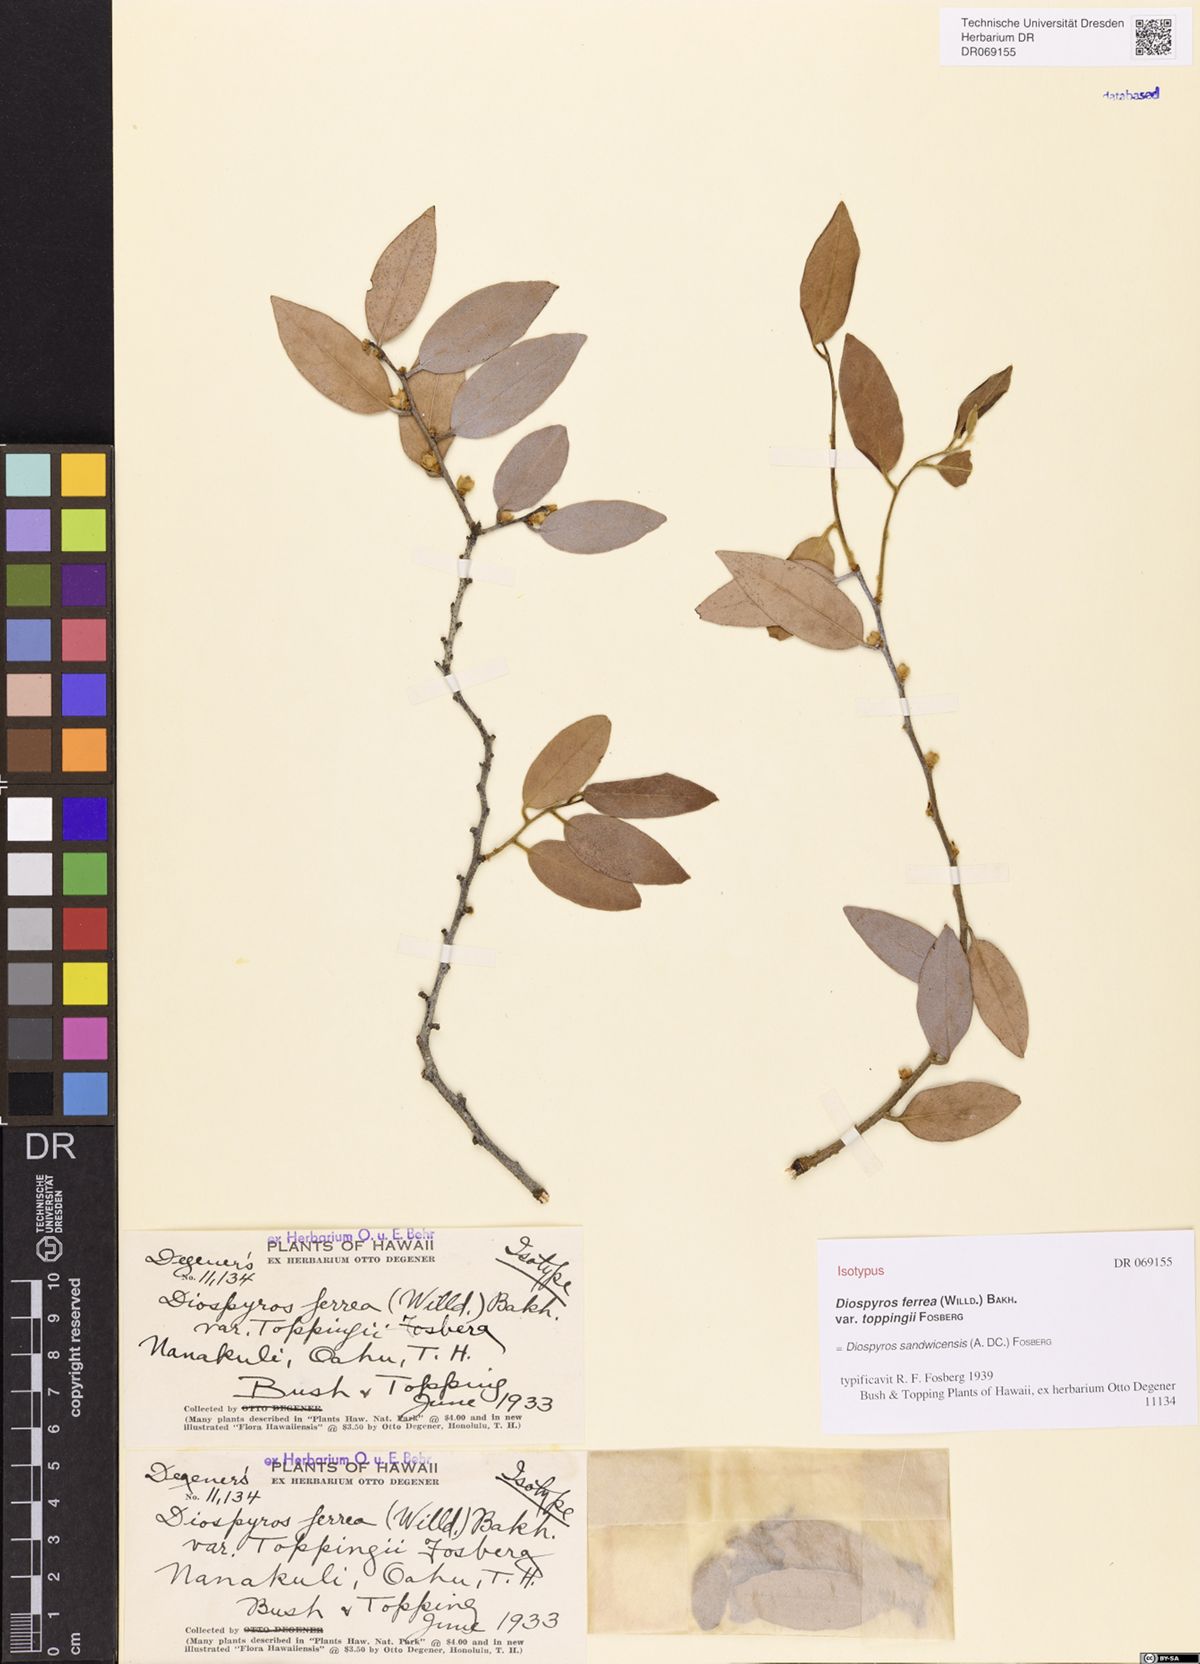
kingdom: Plantae
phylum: Tracheophyta
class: Magnoliopsida
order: Ericales
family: Ebenaceae
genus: Diospyros
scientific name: Diospyros sandwicensis
